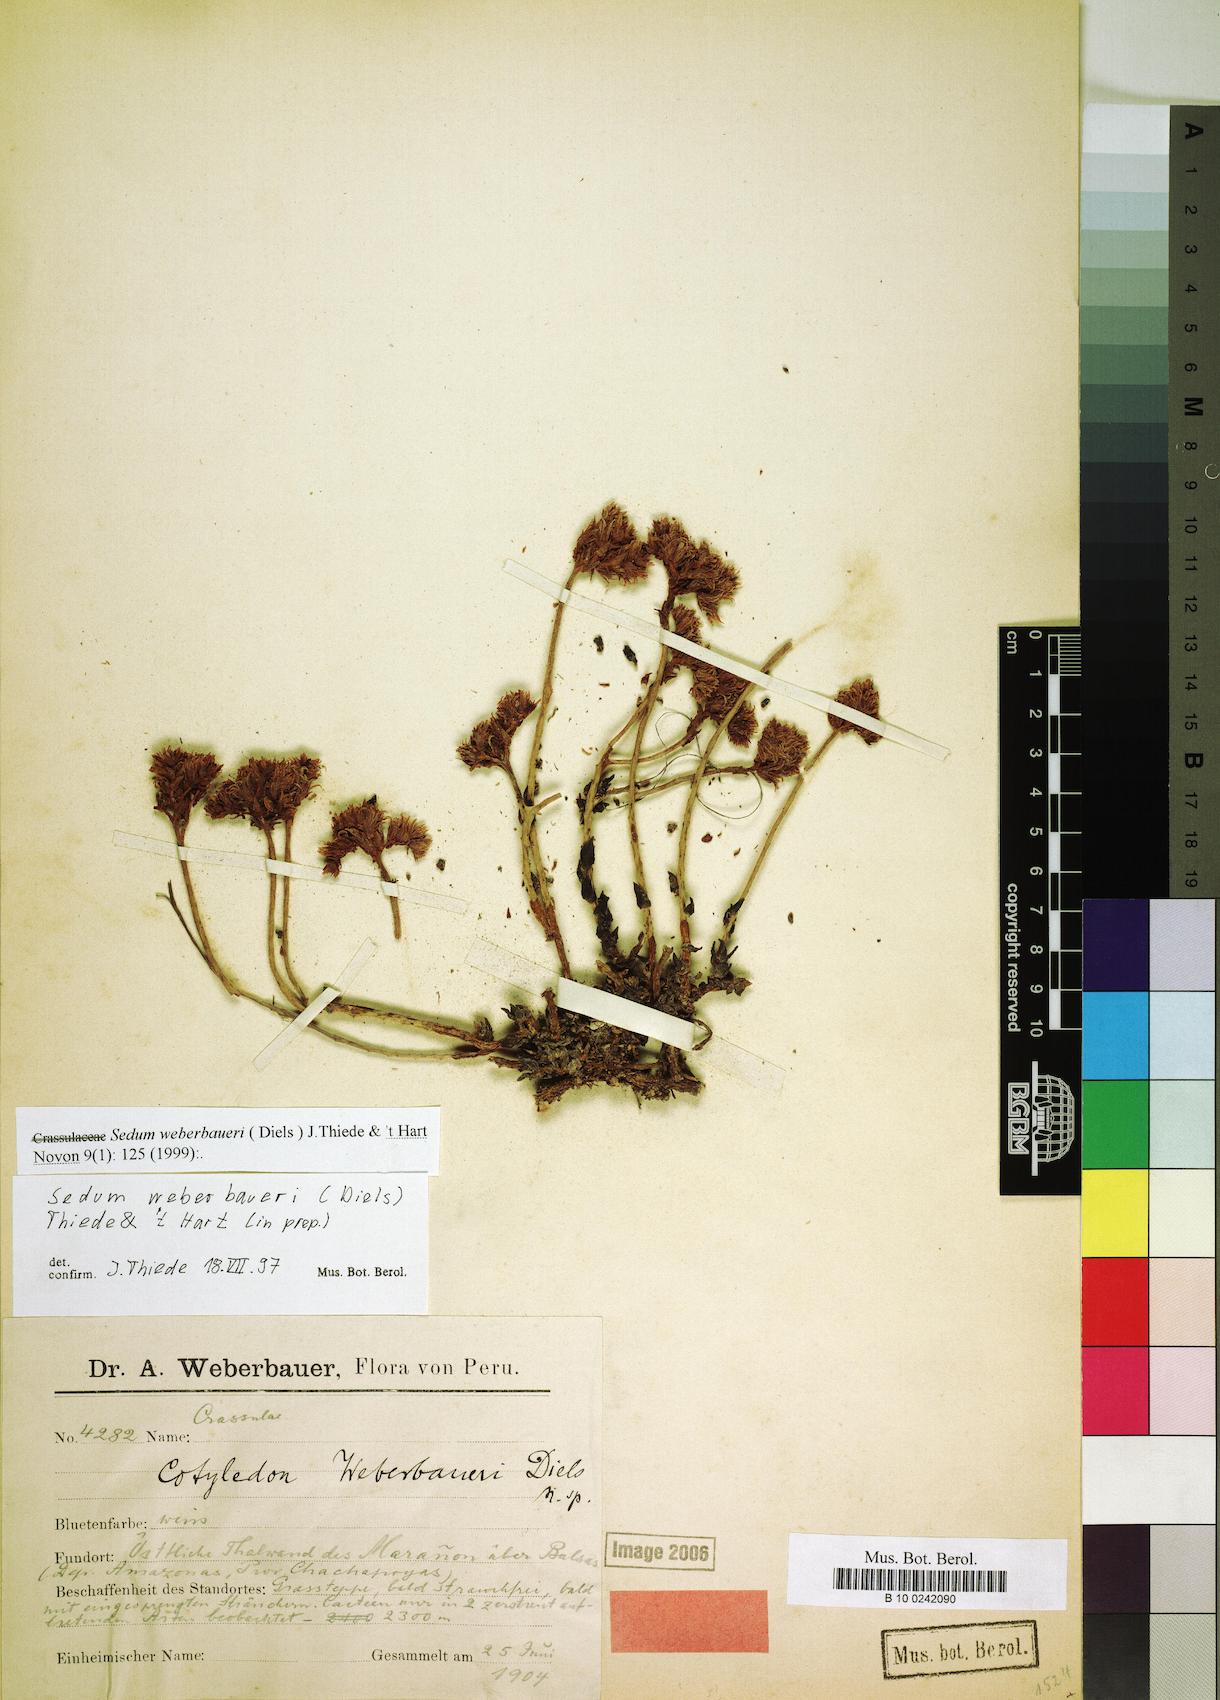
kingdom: Plantae
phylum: Tracheophyta
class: Magnoliopsida
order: Saxifragales
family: Crassulaceae
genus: Sedum
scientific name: Sedum weberbaueri
